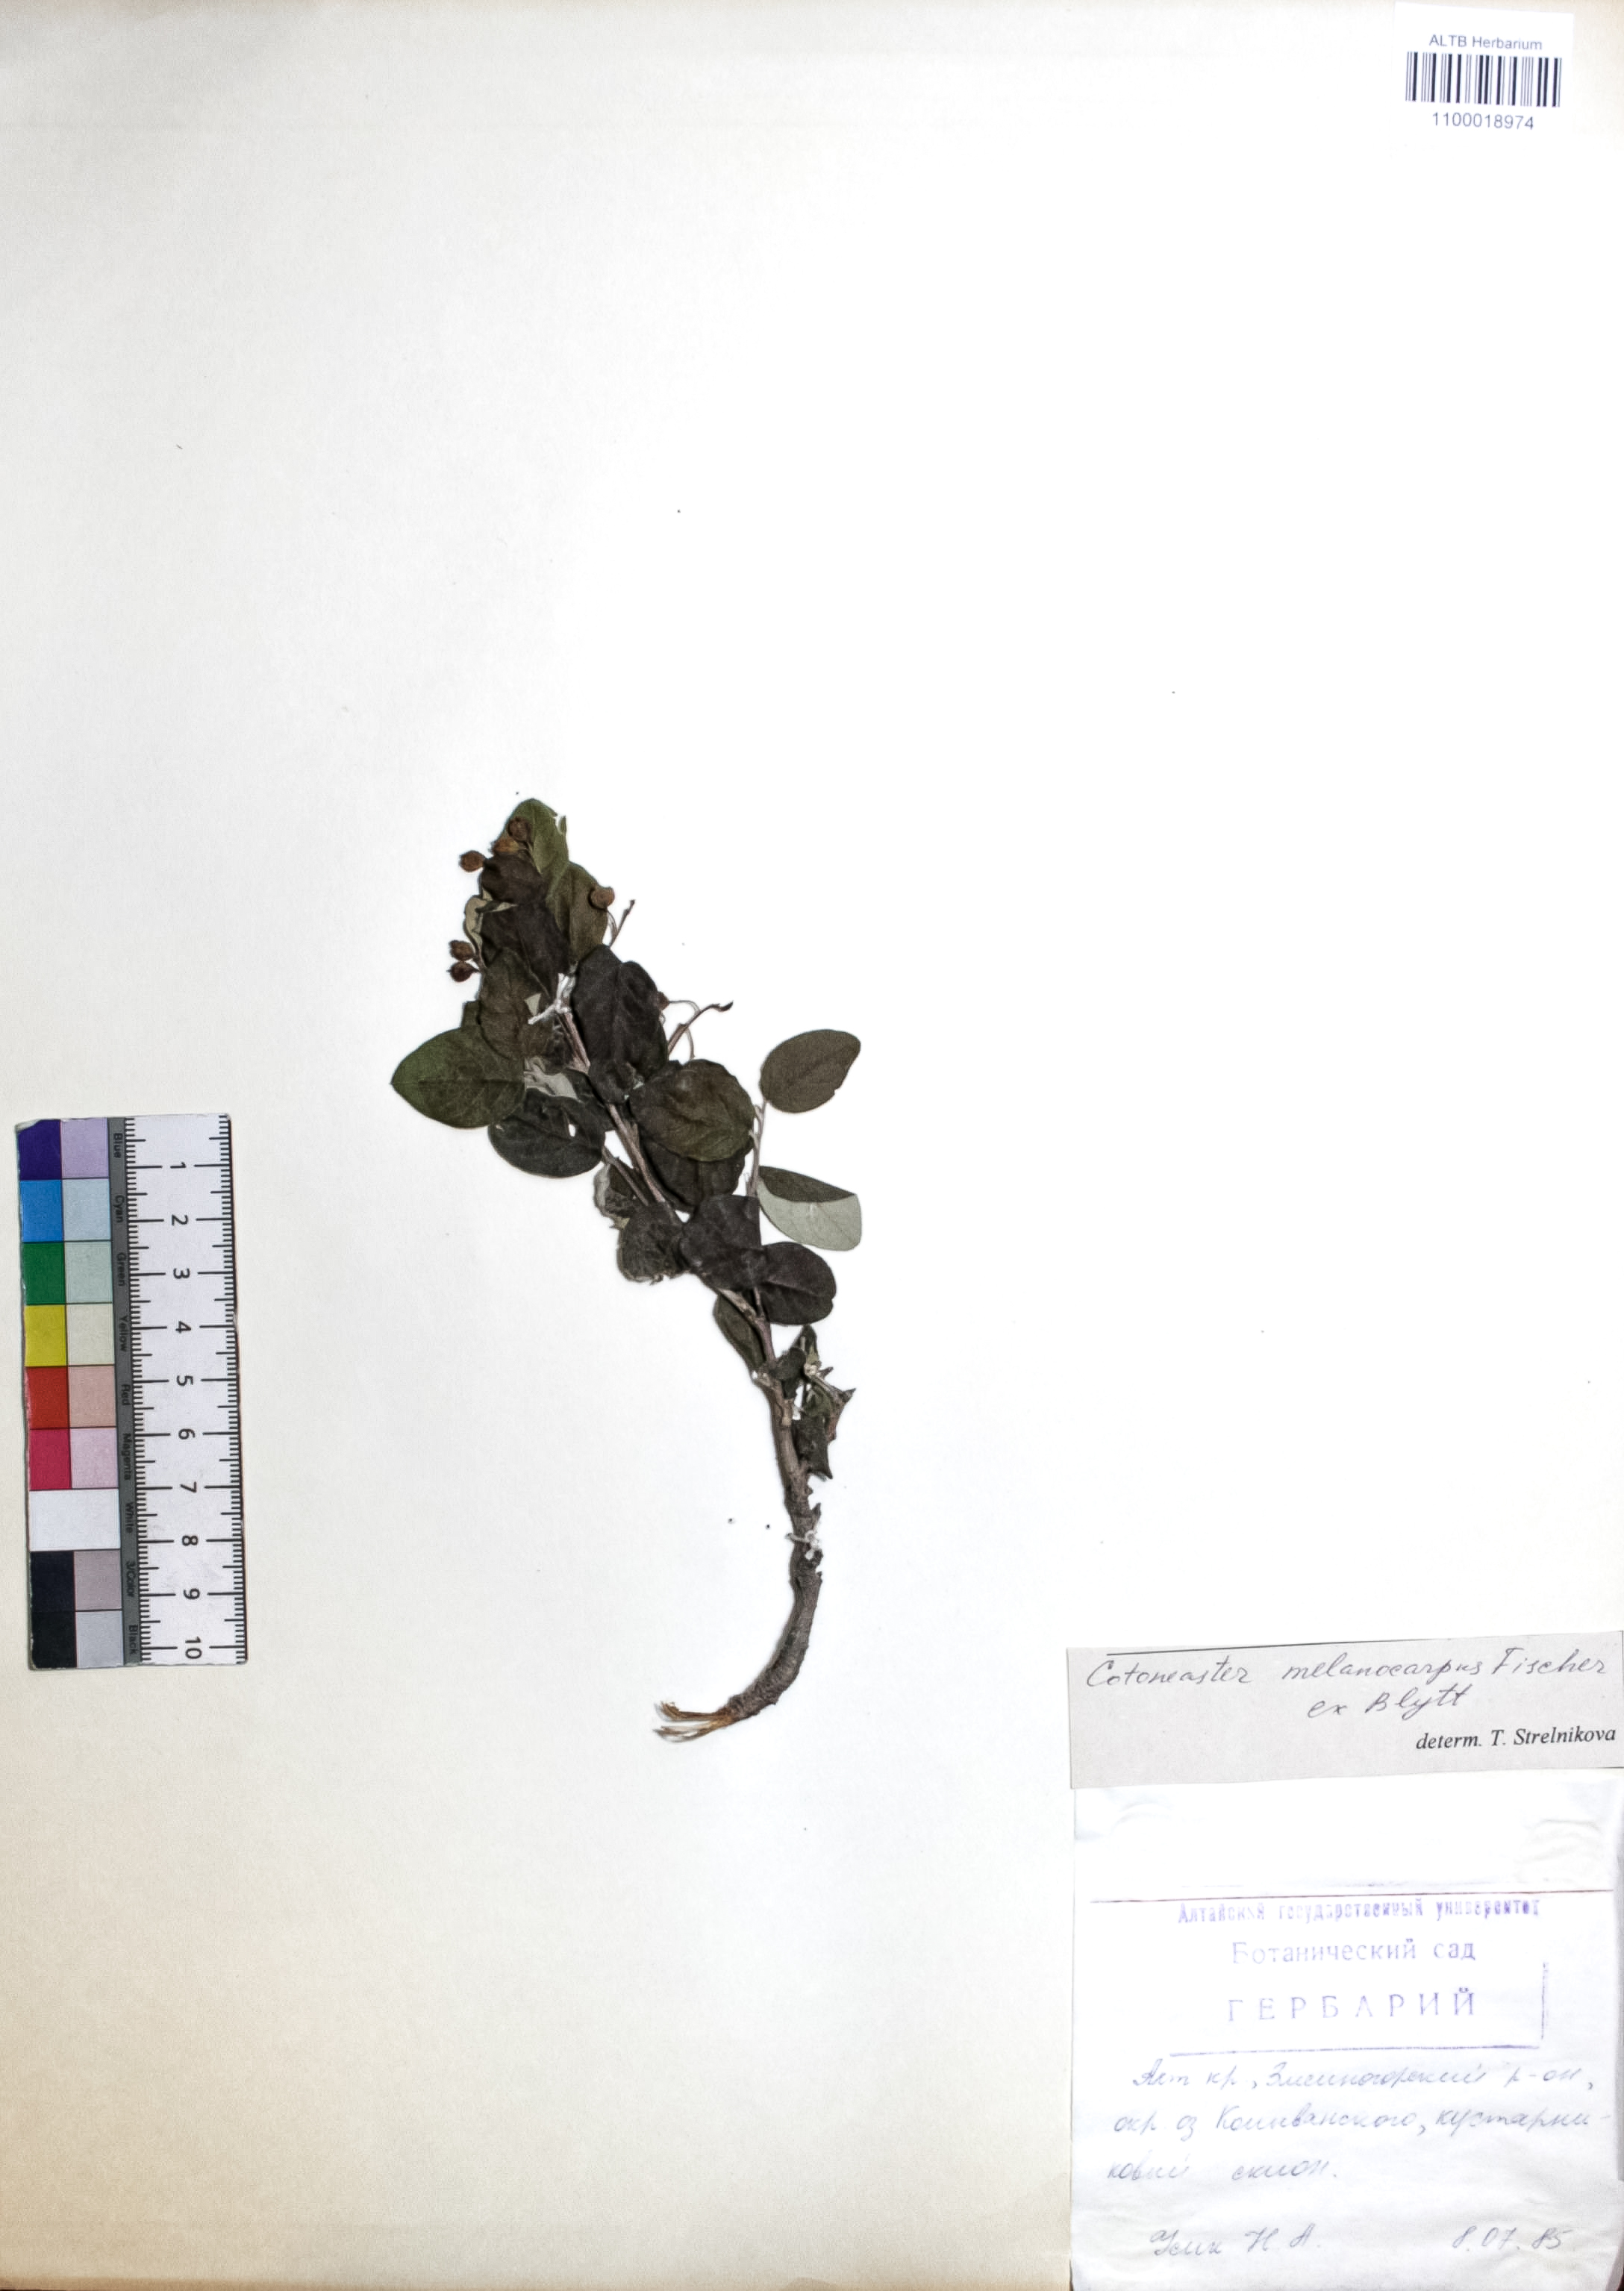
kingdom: Plantae
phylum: Tracheophyta
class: Magnoliopsida
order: Rosales
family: Rosaceae
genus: Cotoneaster
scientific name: Cotoneaster niger
